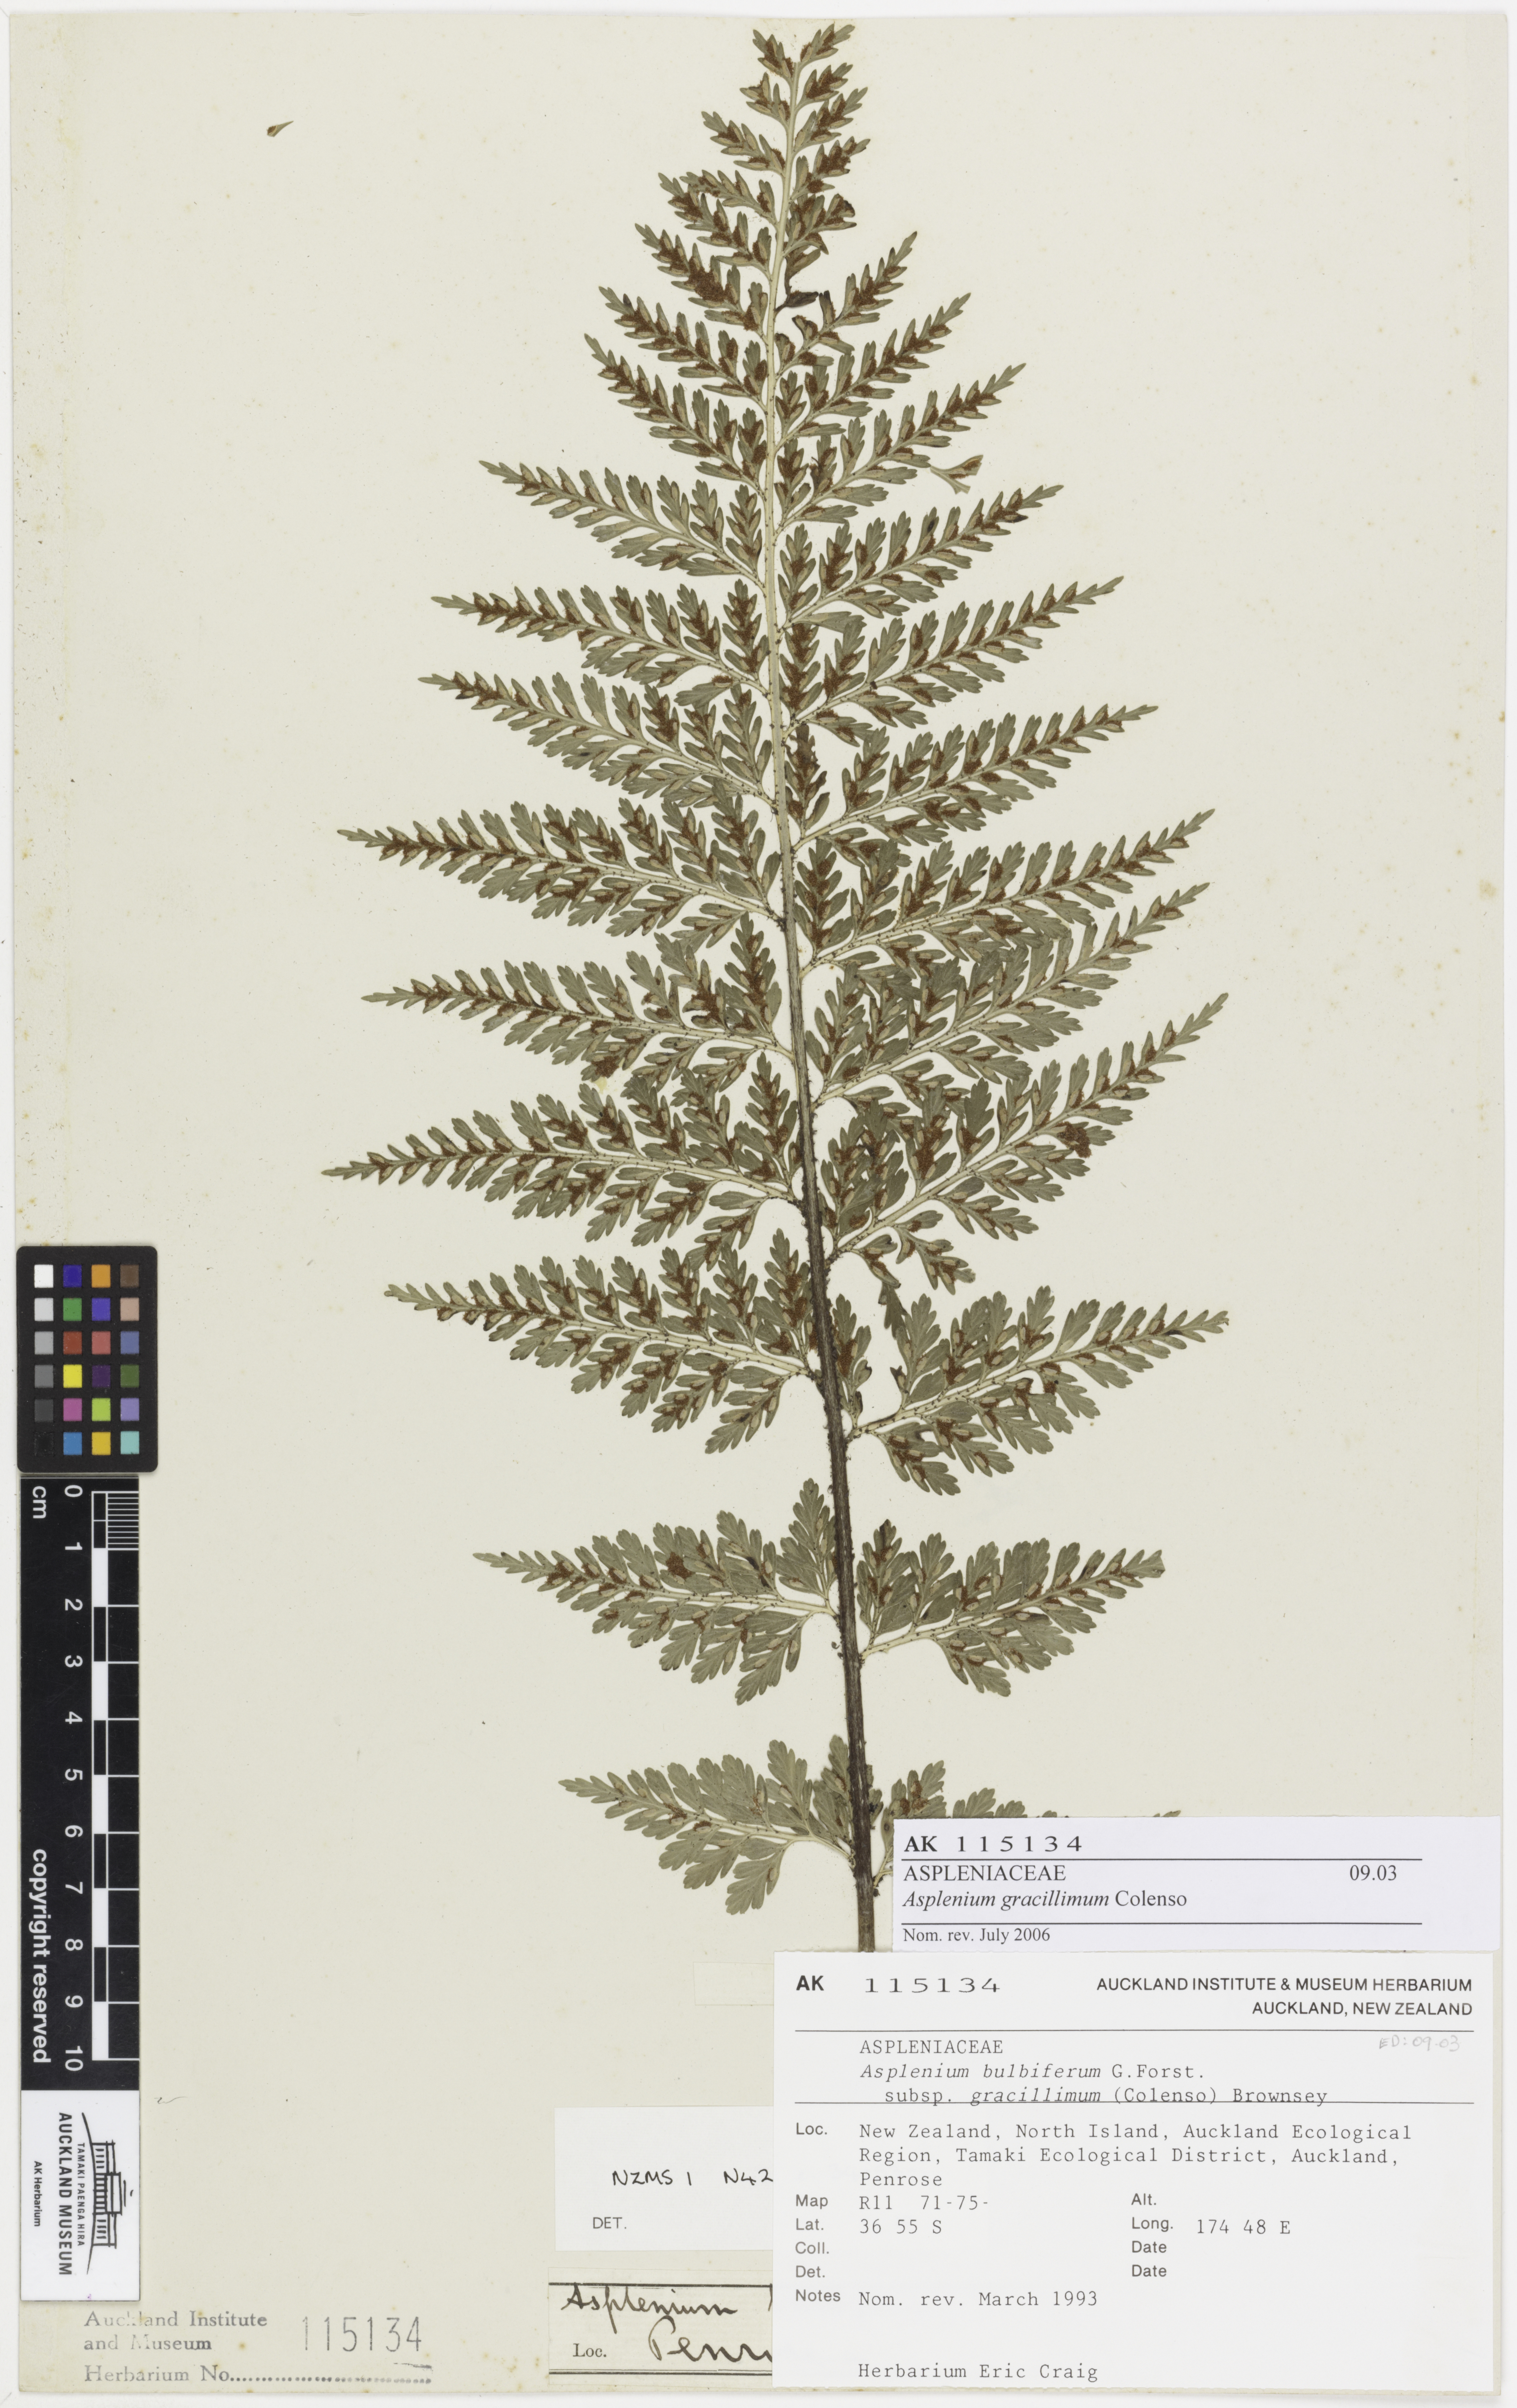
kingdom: Plantae
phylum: Tracheophyta
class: Polypodiopsida
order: Polypodiales
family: Aspleniaceae
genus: Asplenium
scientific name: Asplenium bulbiferum
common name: Mother fern
